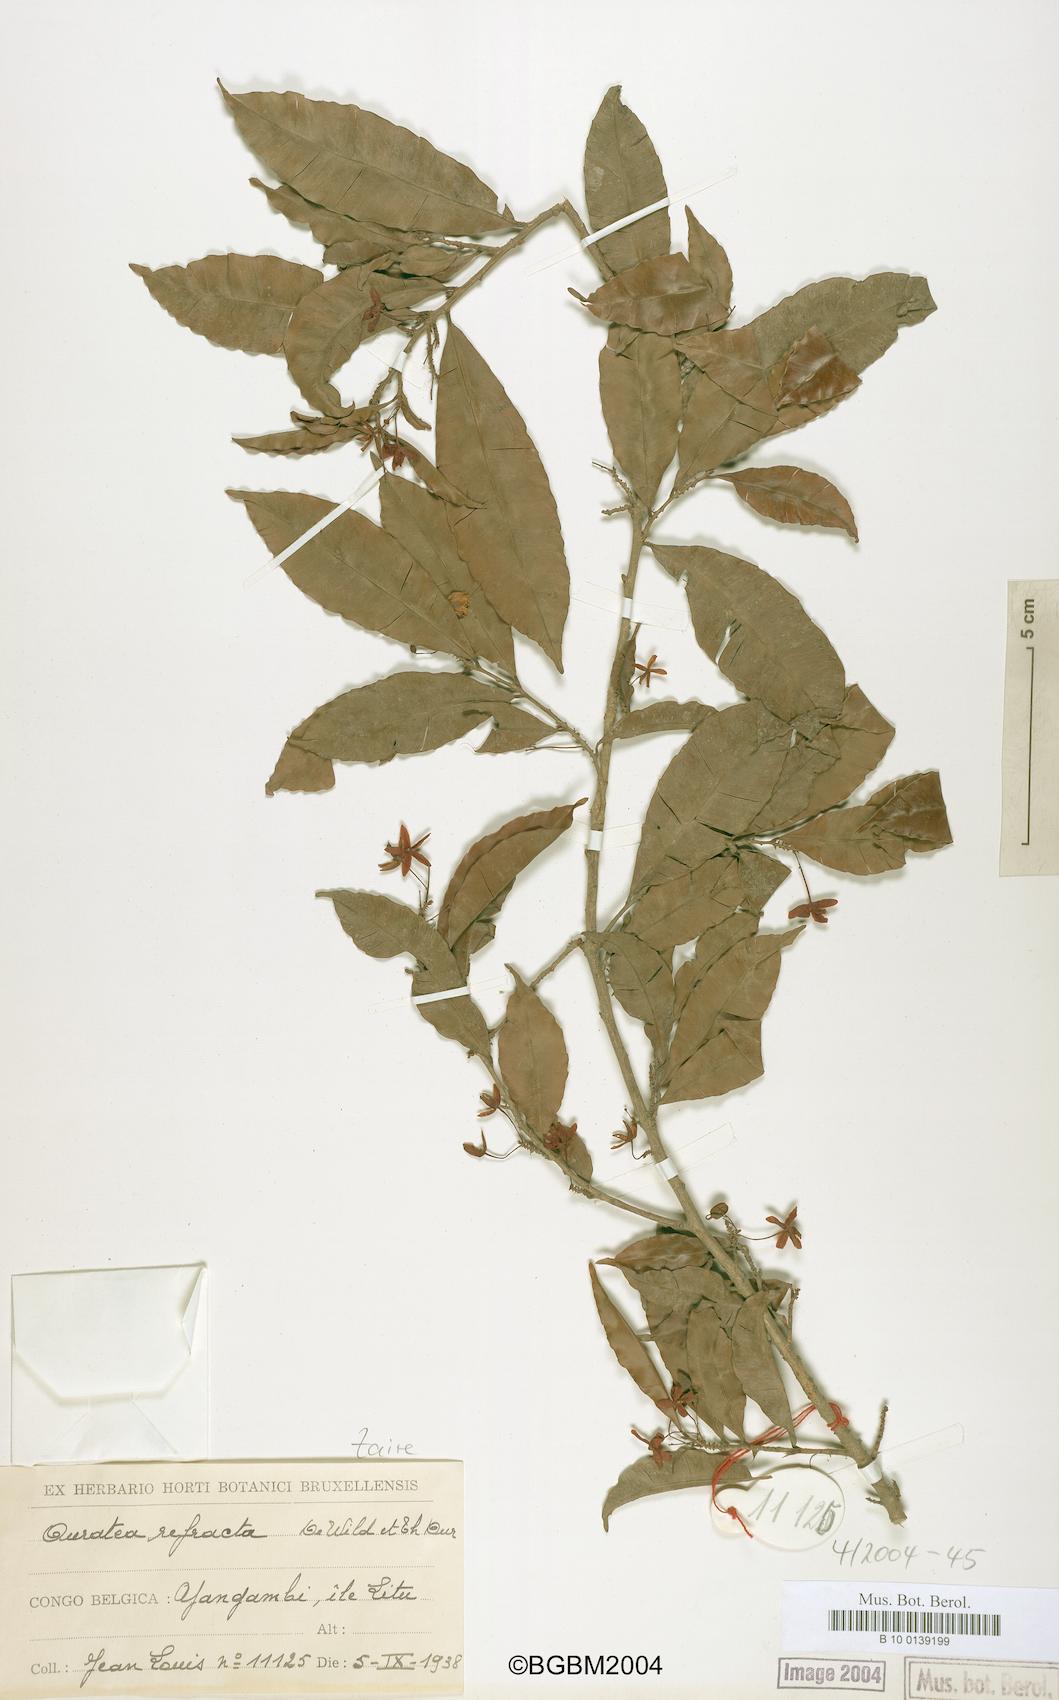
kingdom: Plantae
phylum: Tracheophyta
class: Magnoliopsida
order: Malpighiales
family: Ochnaceae
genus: Rhabdophyllum
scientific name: Rhabdophyllum refractum
